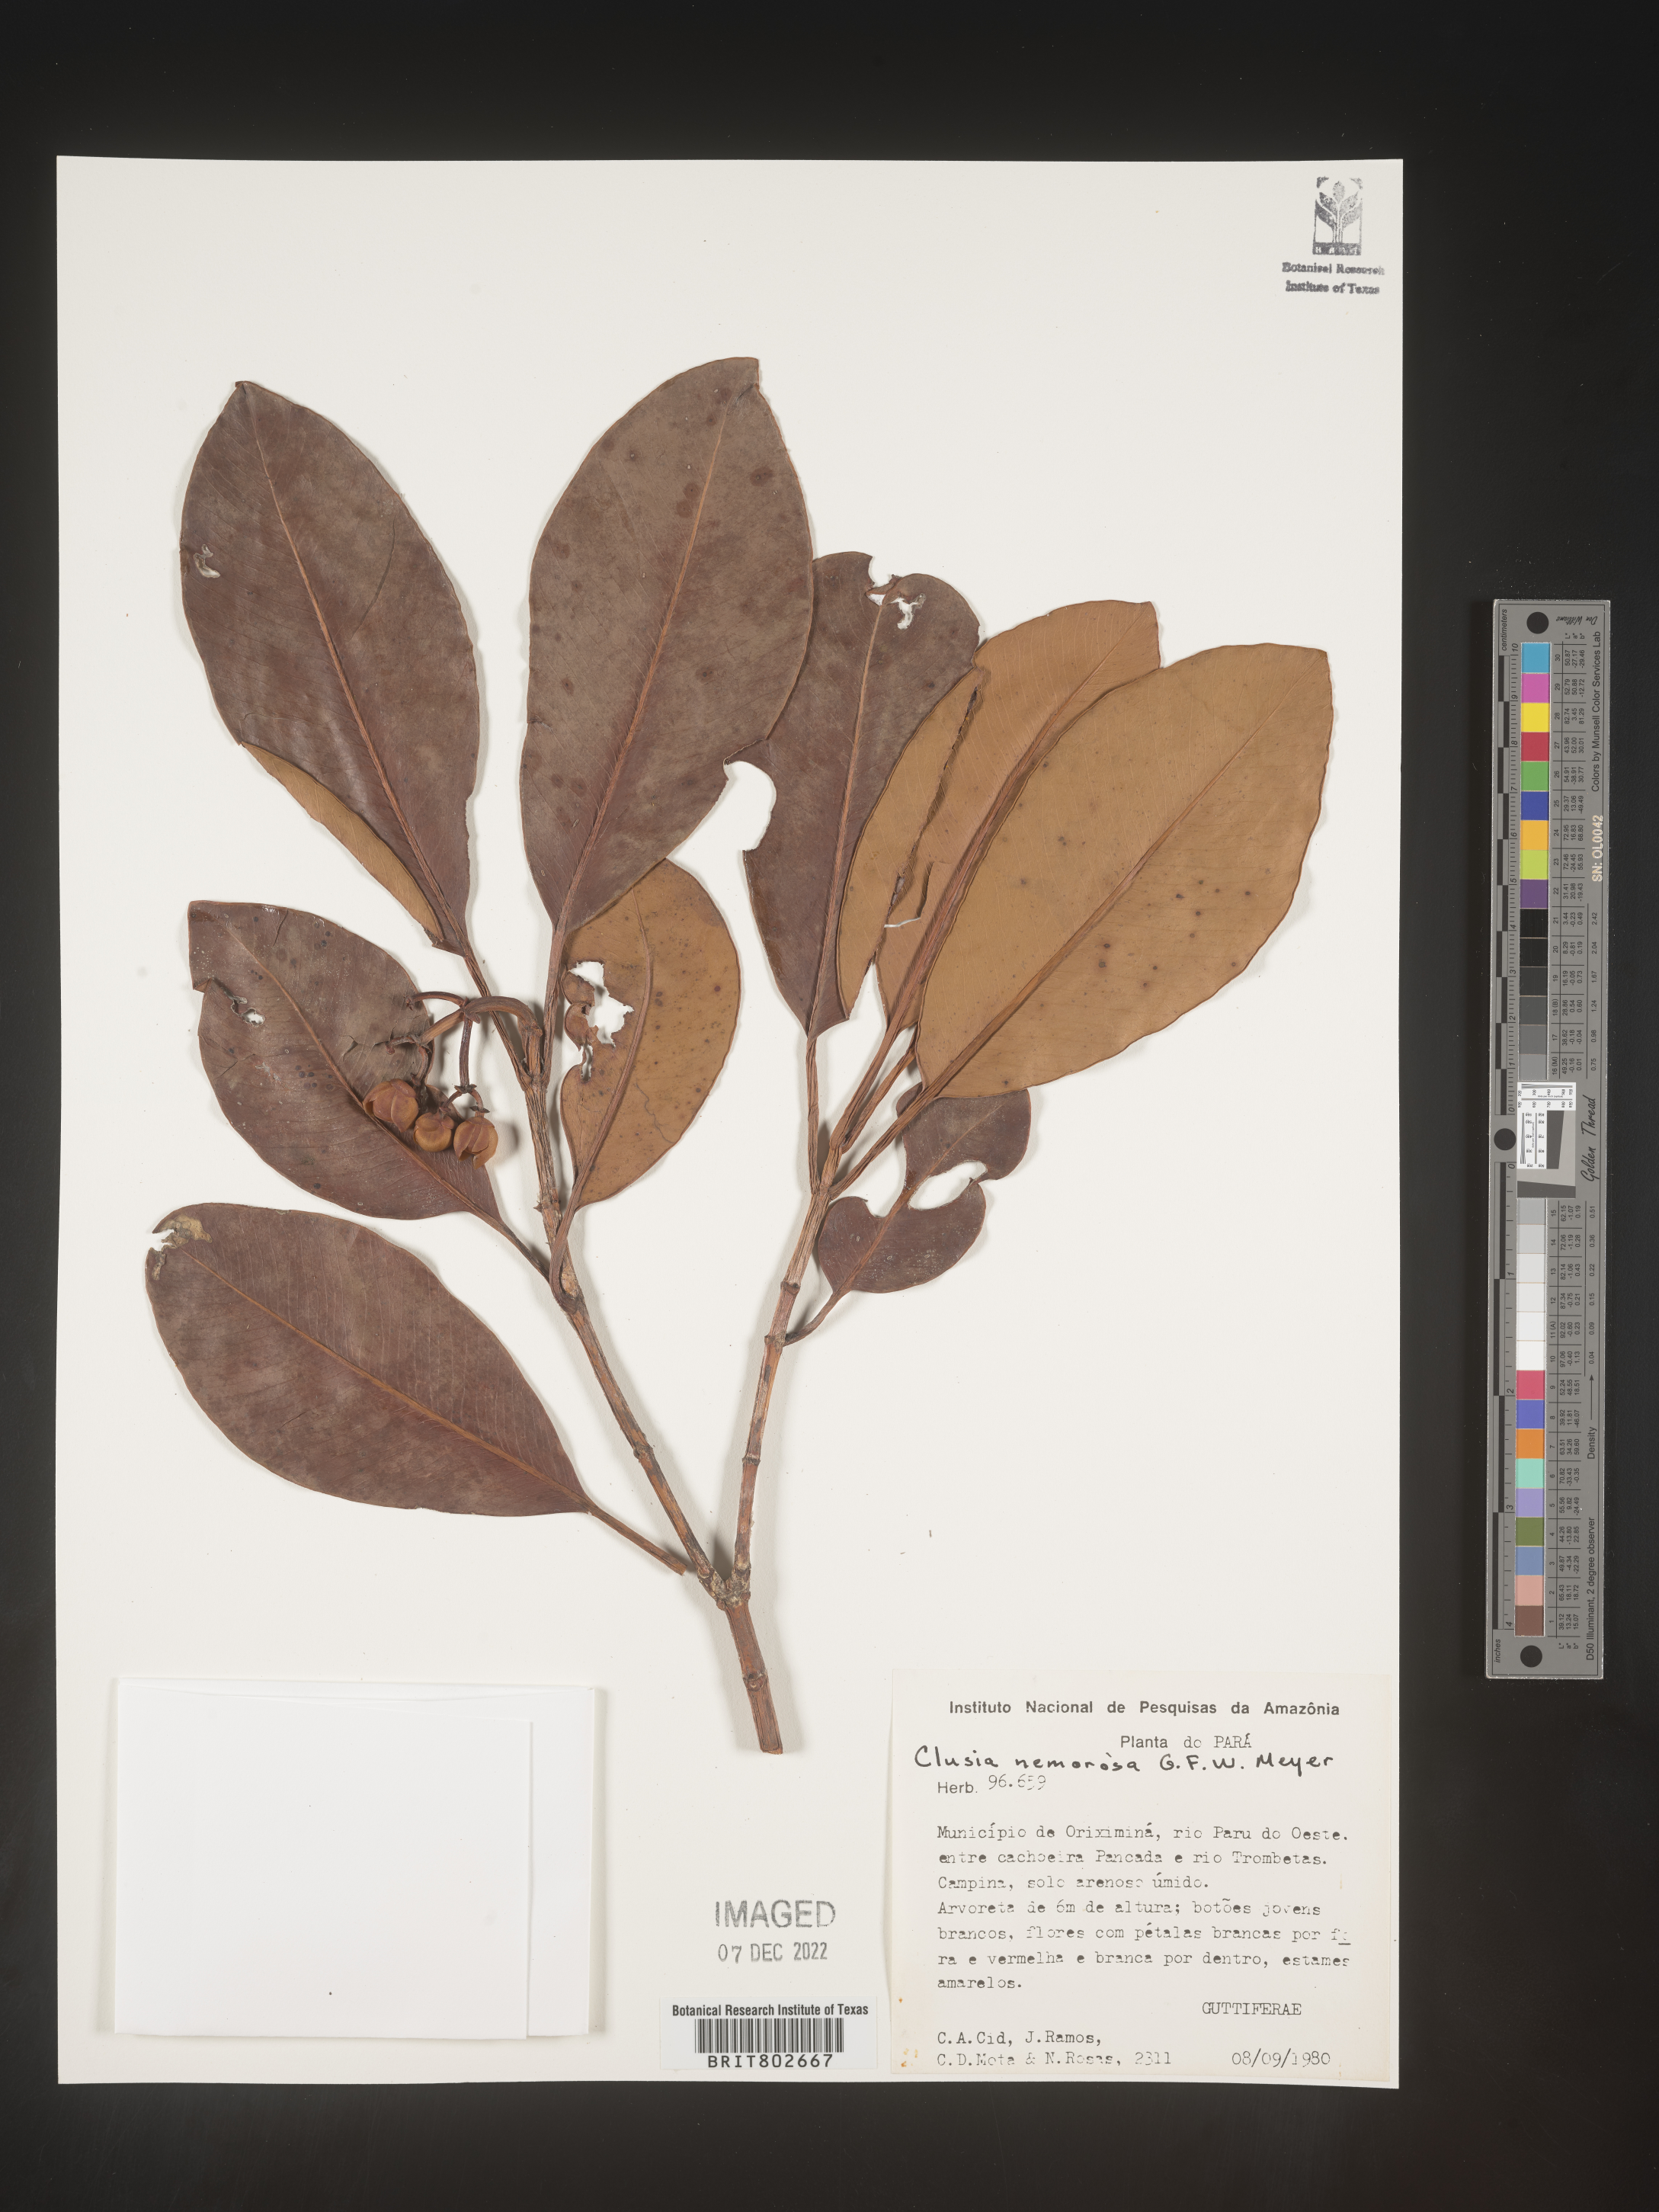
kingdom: Plantae
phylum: Tracheophyta
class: Magnoliopsida
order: Malpighiales
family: Clusiaceae
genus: Clusia
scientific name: Clusia nemorosa
